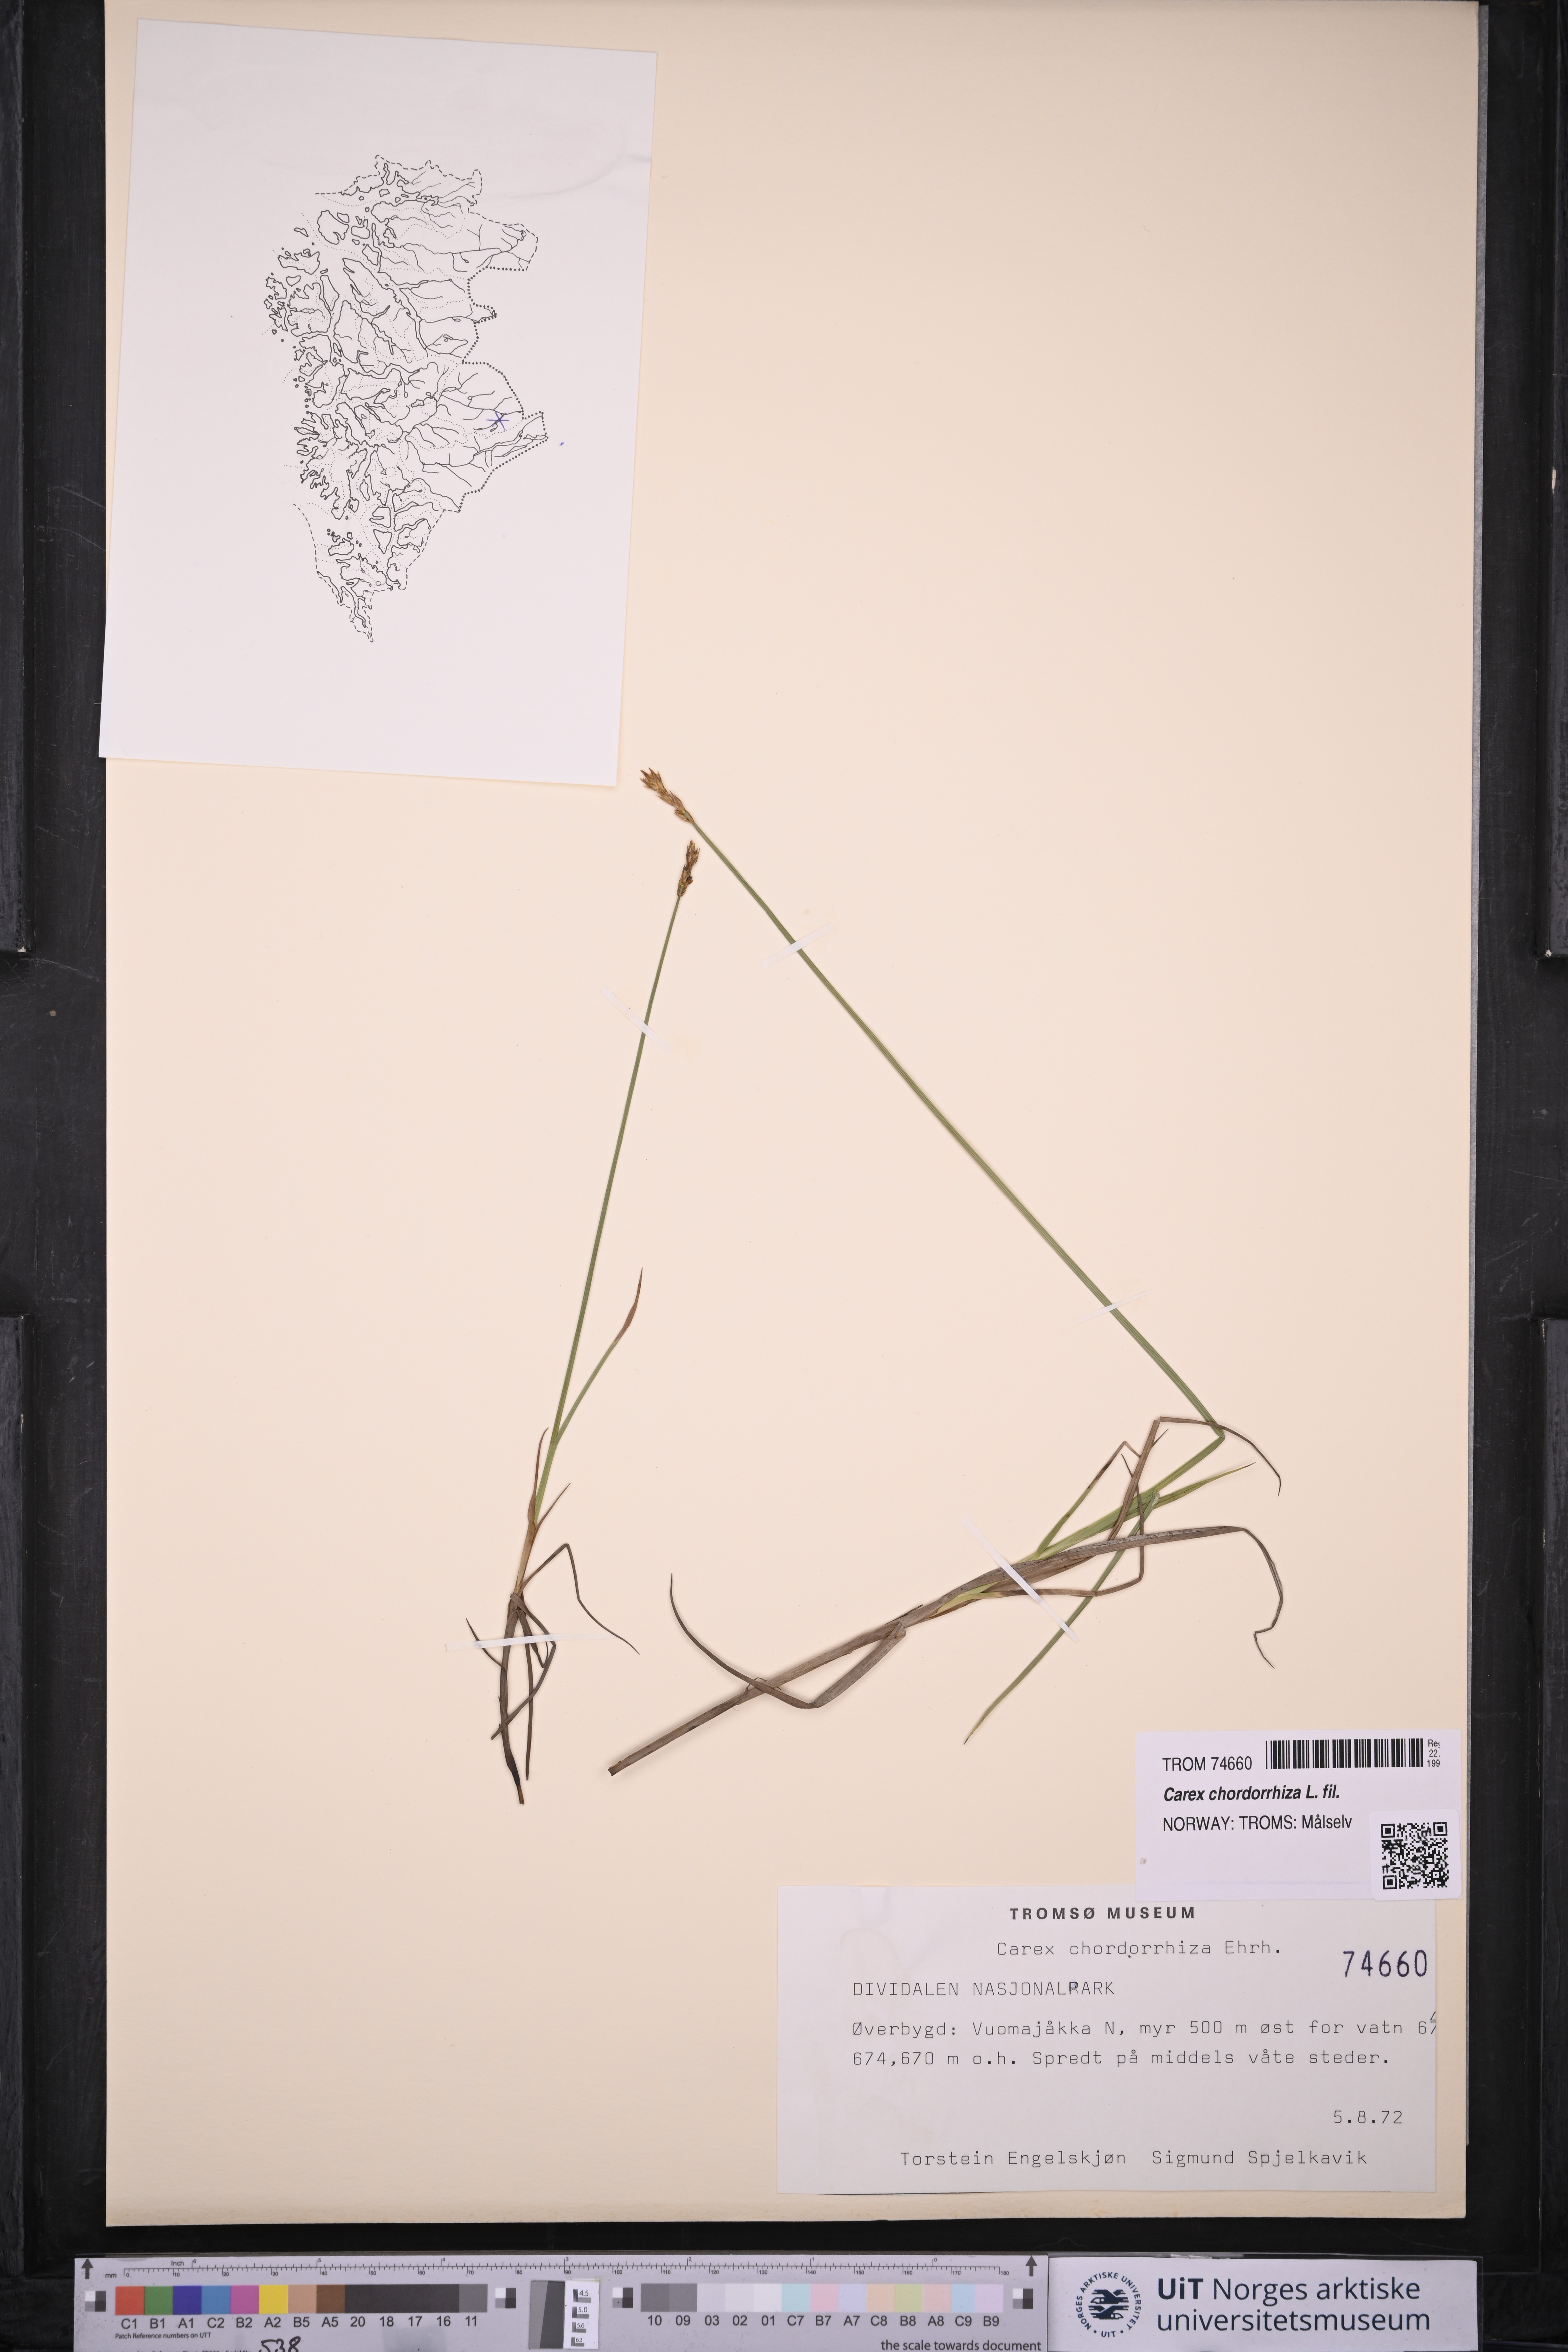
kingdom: Plantae
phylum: Tracheophyta
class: Liliopsida
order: Poales
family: Cyperaceae
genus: Carex
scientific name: Carex chordorrhiza
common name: String sedge
